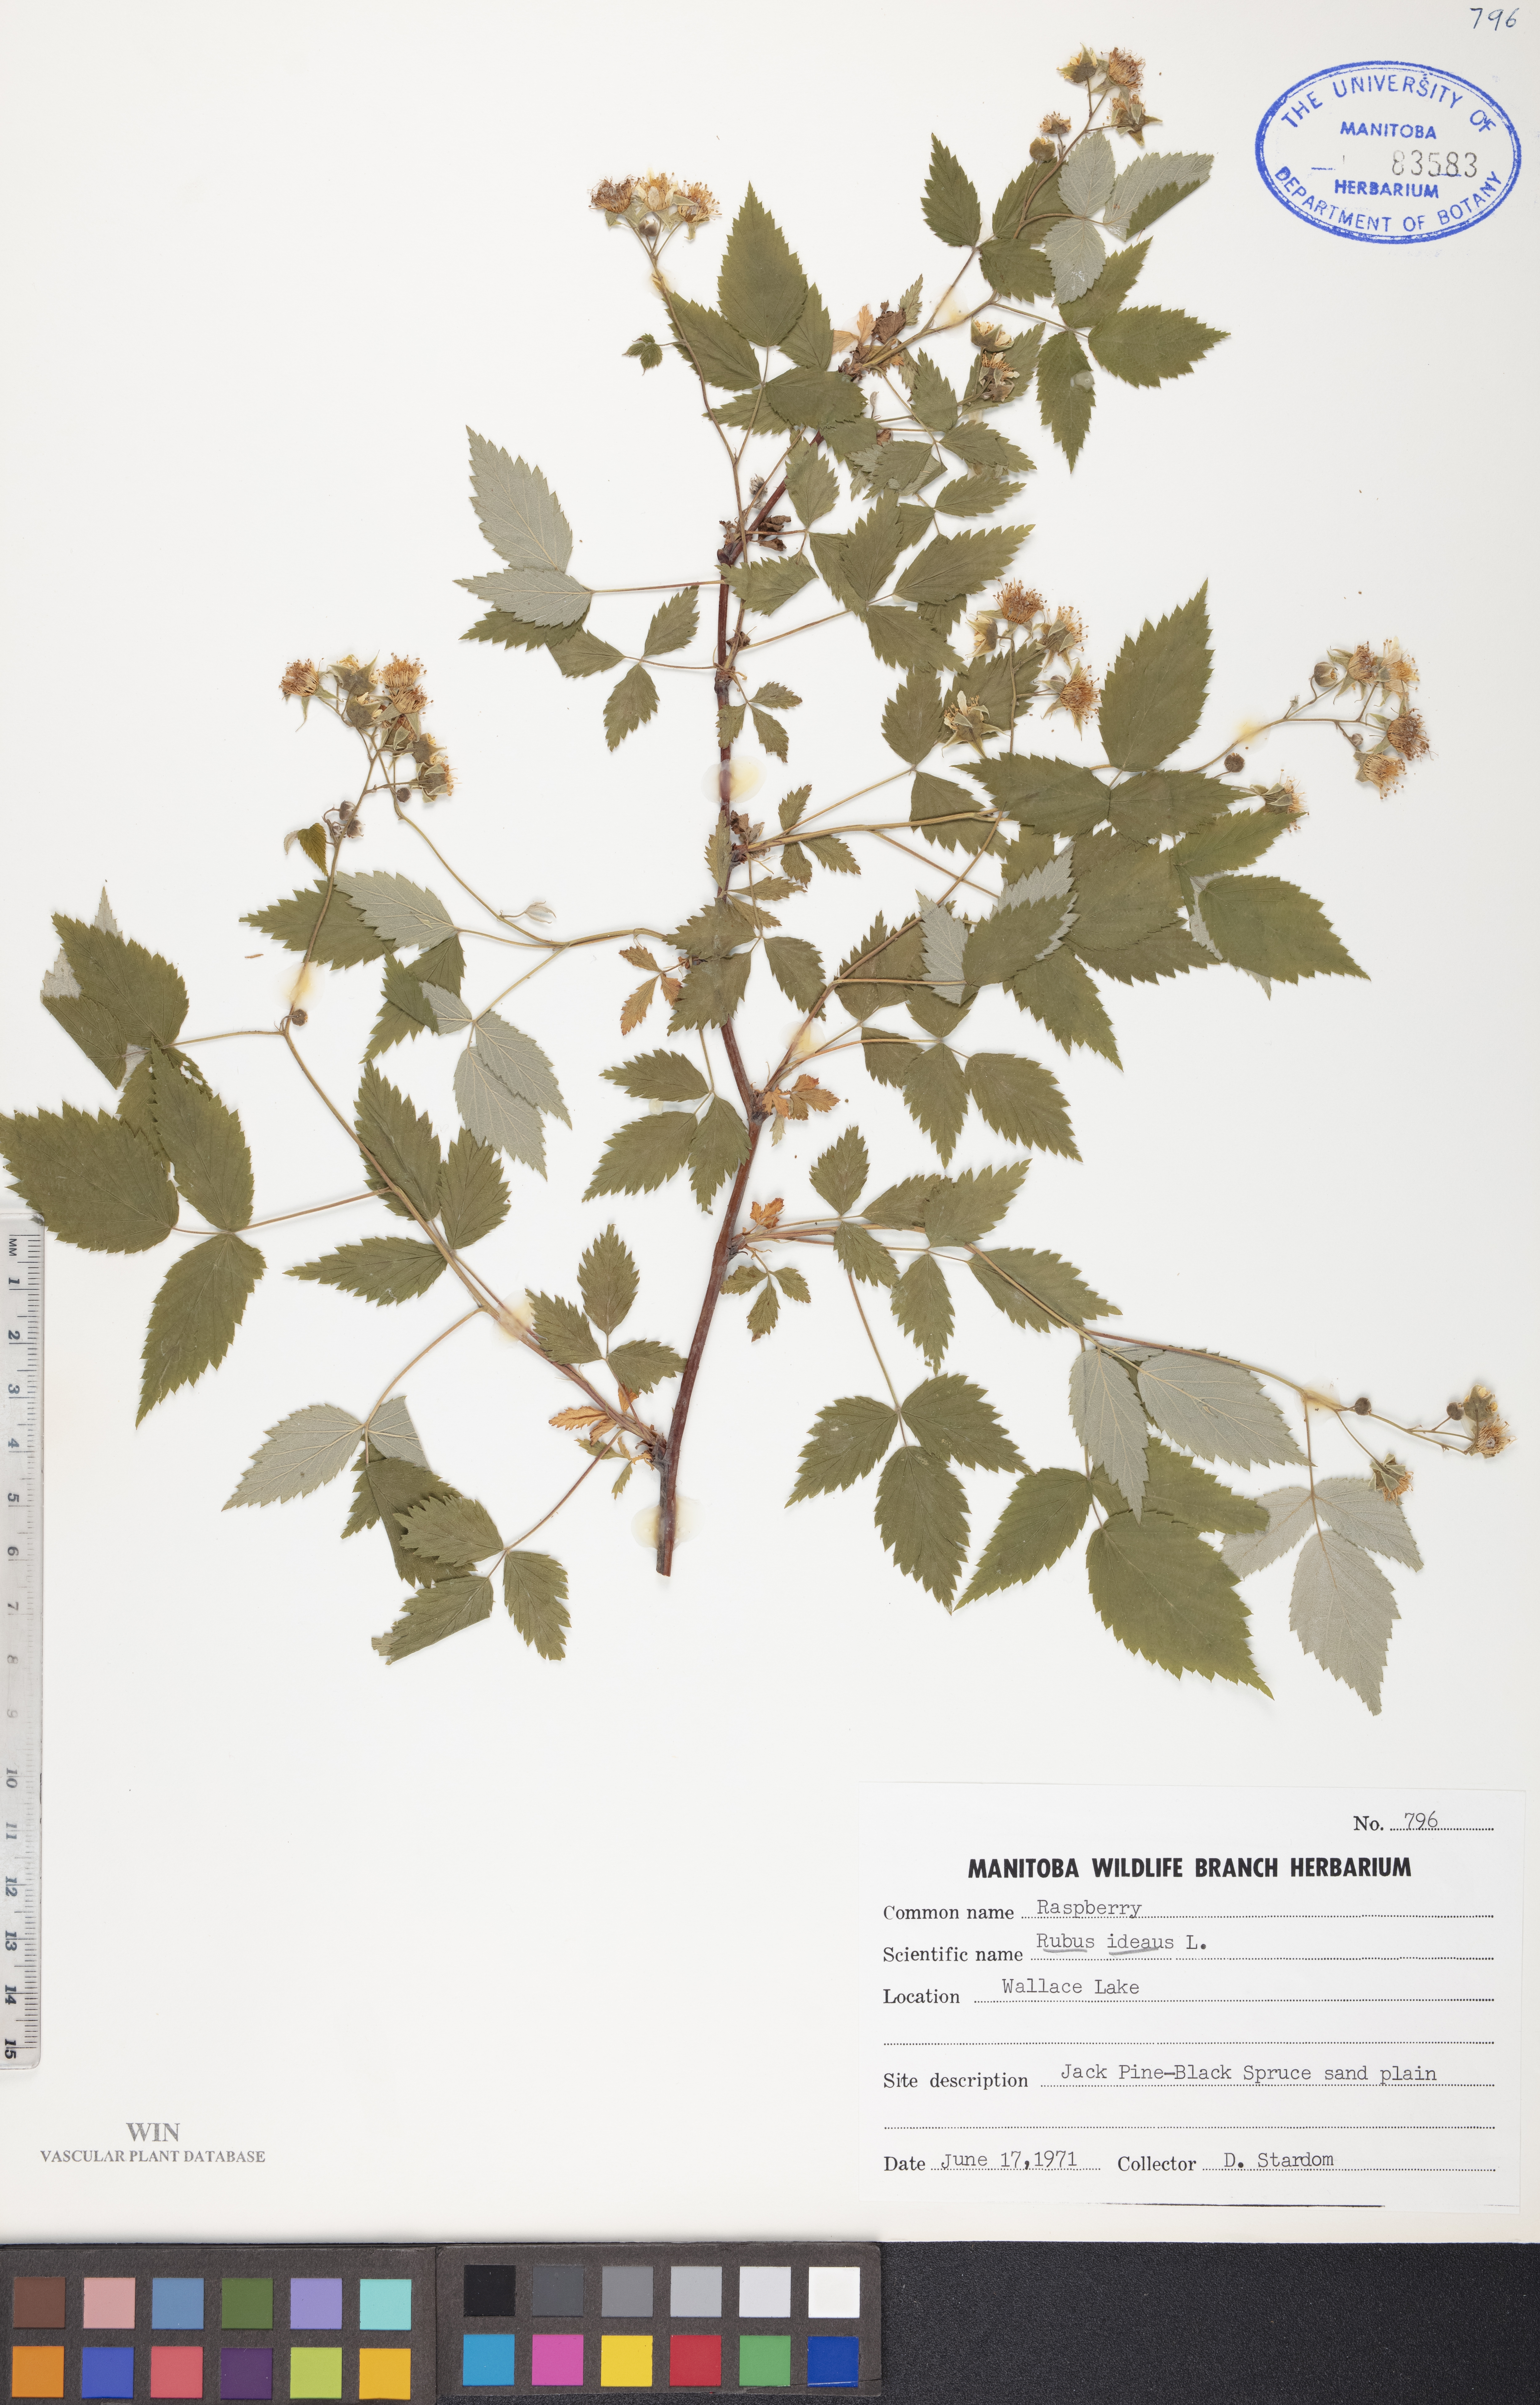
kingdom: Plantae
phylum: Tracheophyta
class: Magnoliopsida
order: Rosales
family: Rosaceae
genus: Rubus
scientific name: Rubus idaeus
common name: Raspberry
